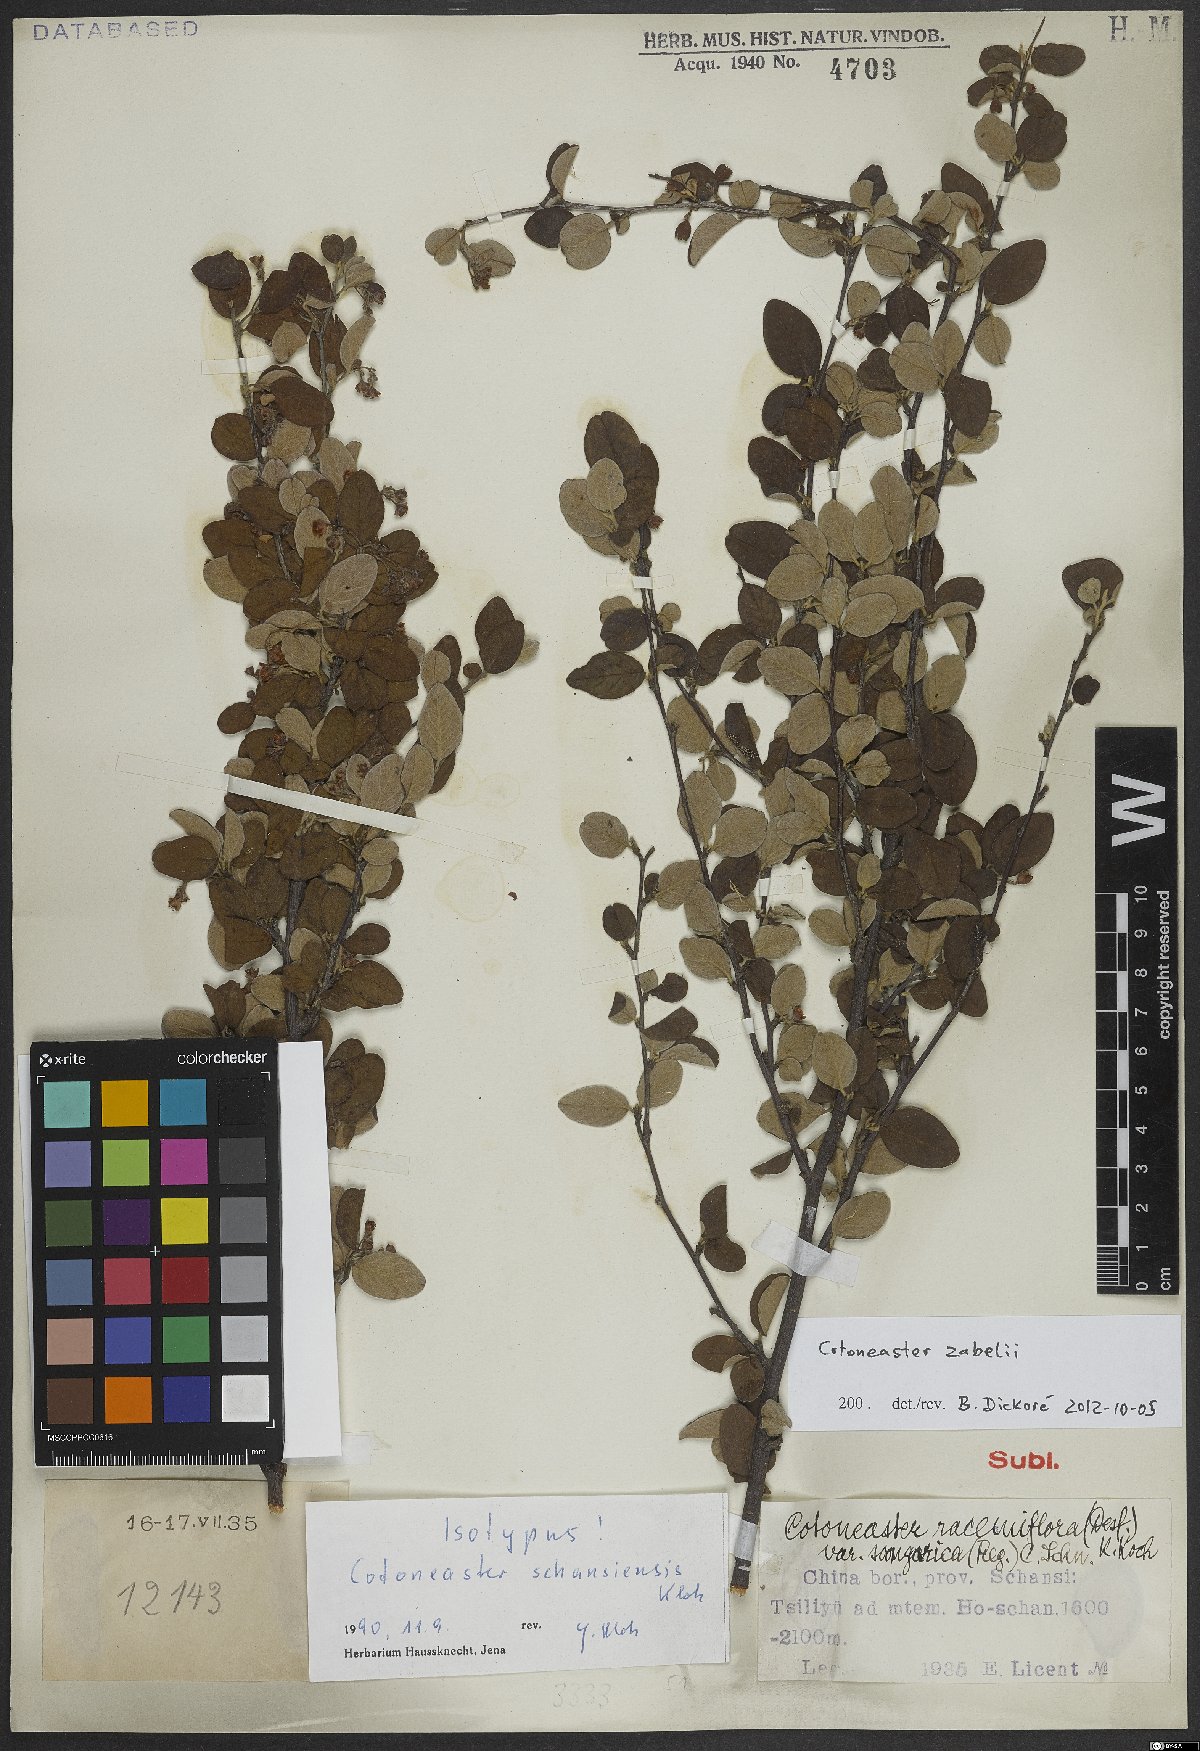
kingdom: Plantae
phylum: Tracheophyta
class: Magnoliopsida
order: Rosales
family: Rosaceae
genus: Cotoneaster
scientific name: Cotoneaster zabelii
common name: Cherryred cotoneaster
